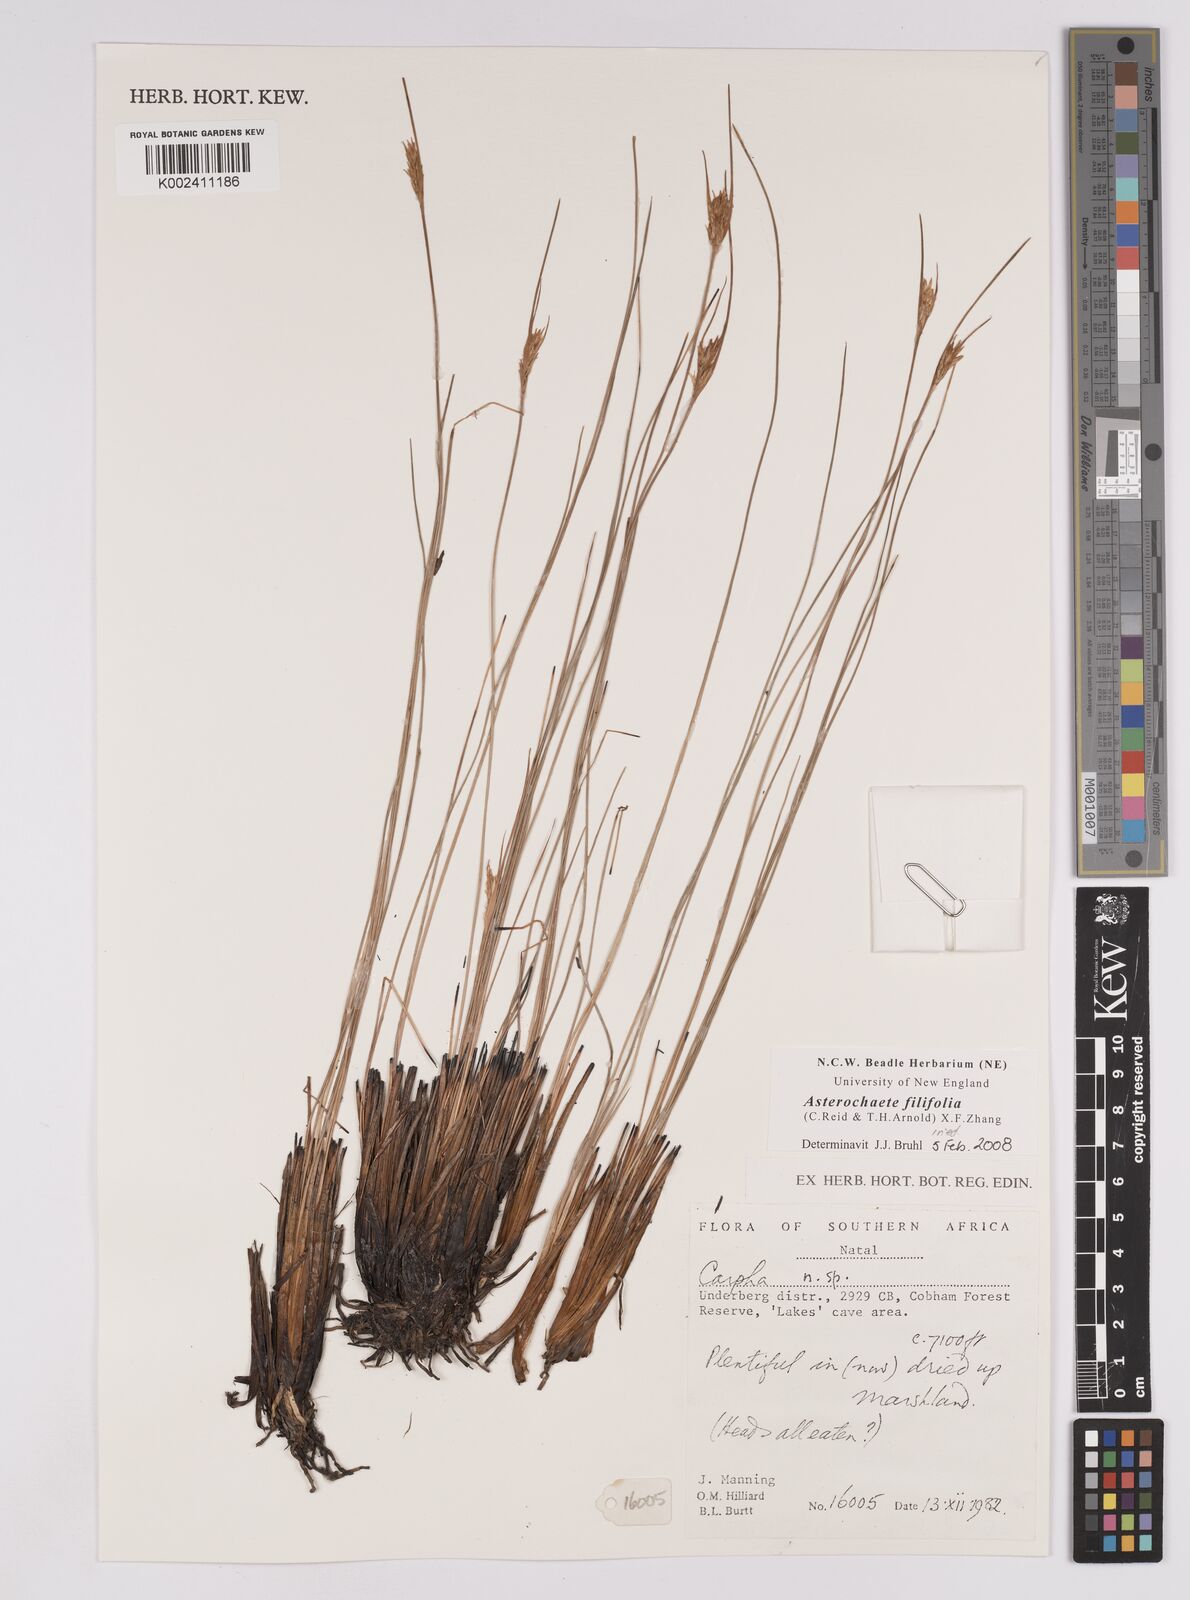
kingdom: Plantae
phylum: Tracheophyta
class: Liliopsida
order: Poales
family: Cyperaceae
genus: Carpha
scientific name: Carpha filifolia
